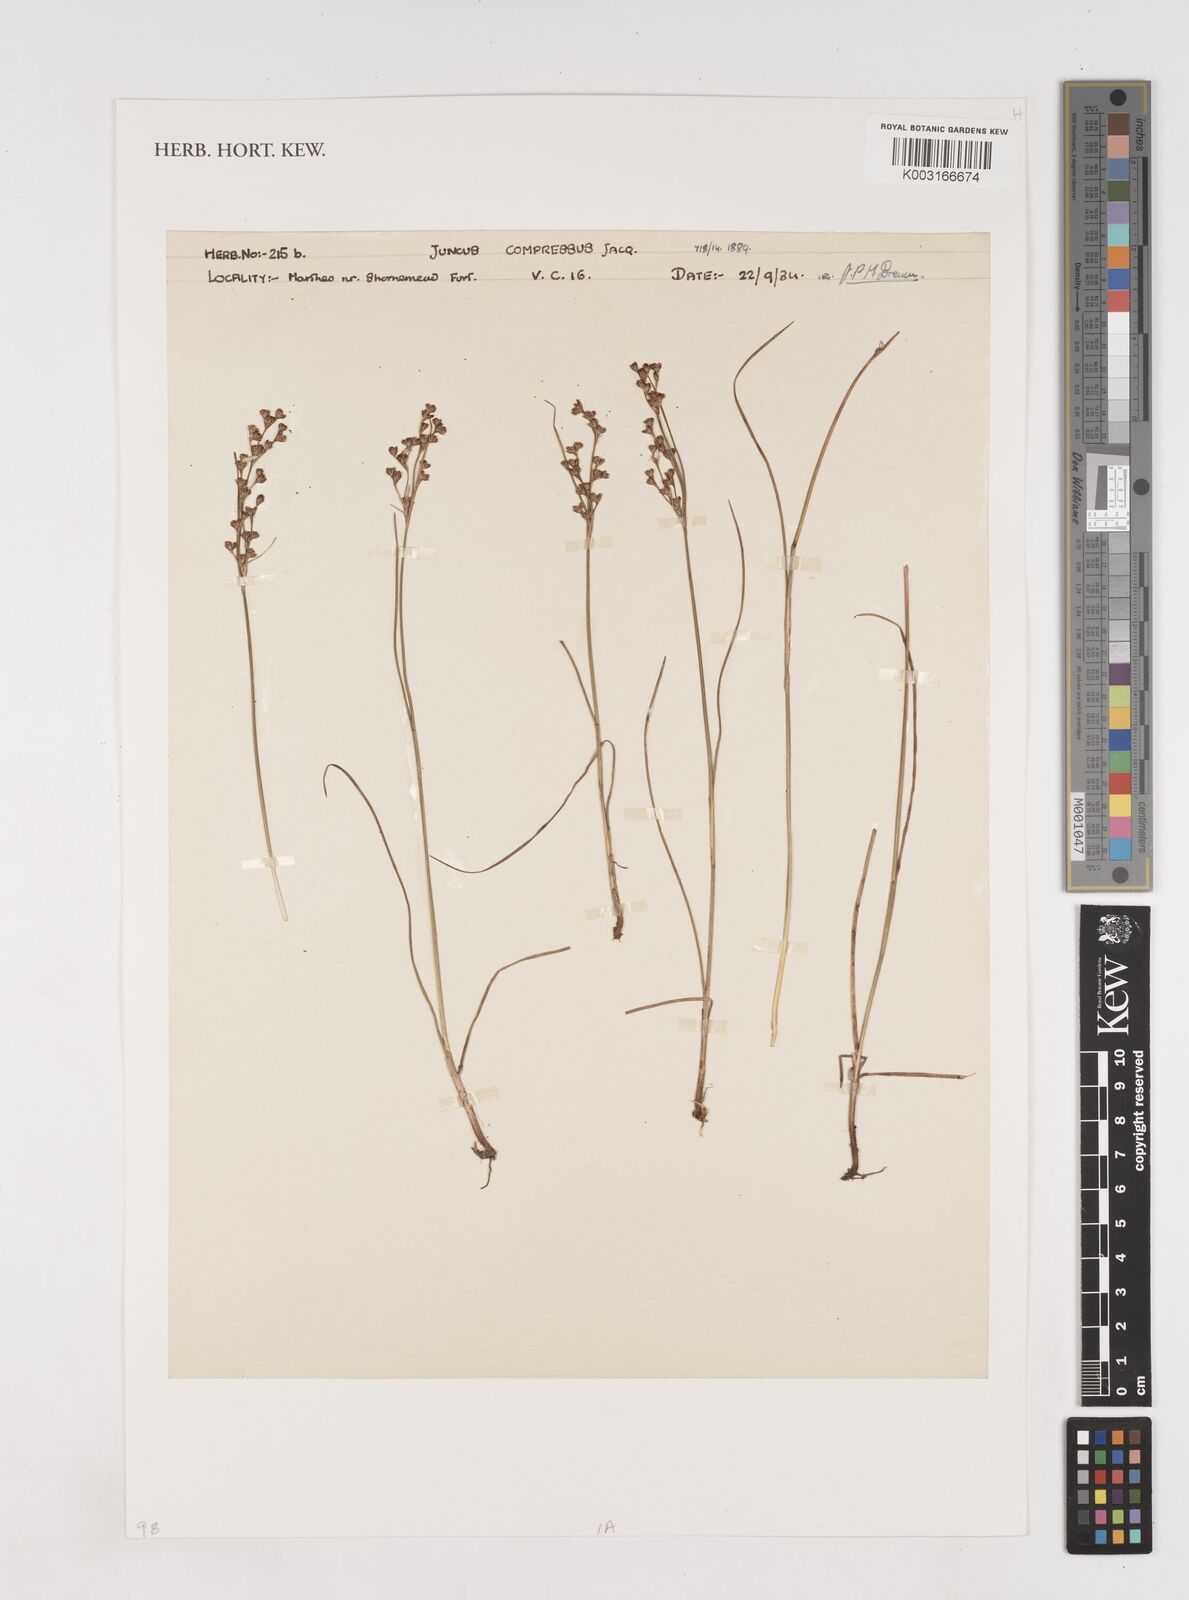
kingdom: Plantae
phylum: Tracheophyta
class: Liliopsida
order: Poales
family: Juncaceae
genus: Juncus
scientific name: Juncus compressus
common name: Round-fruited rush
